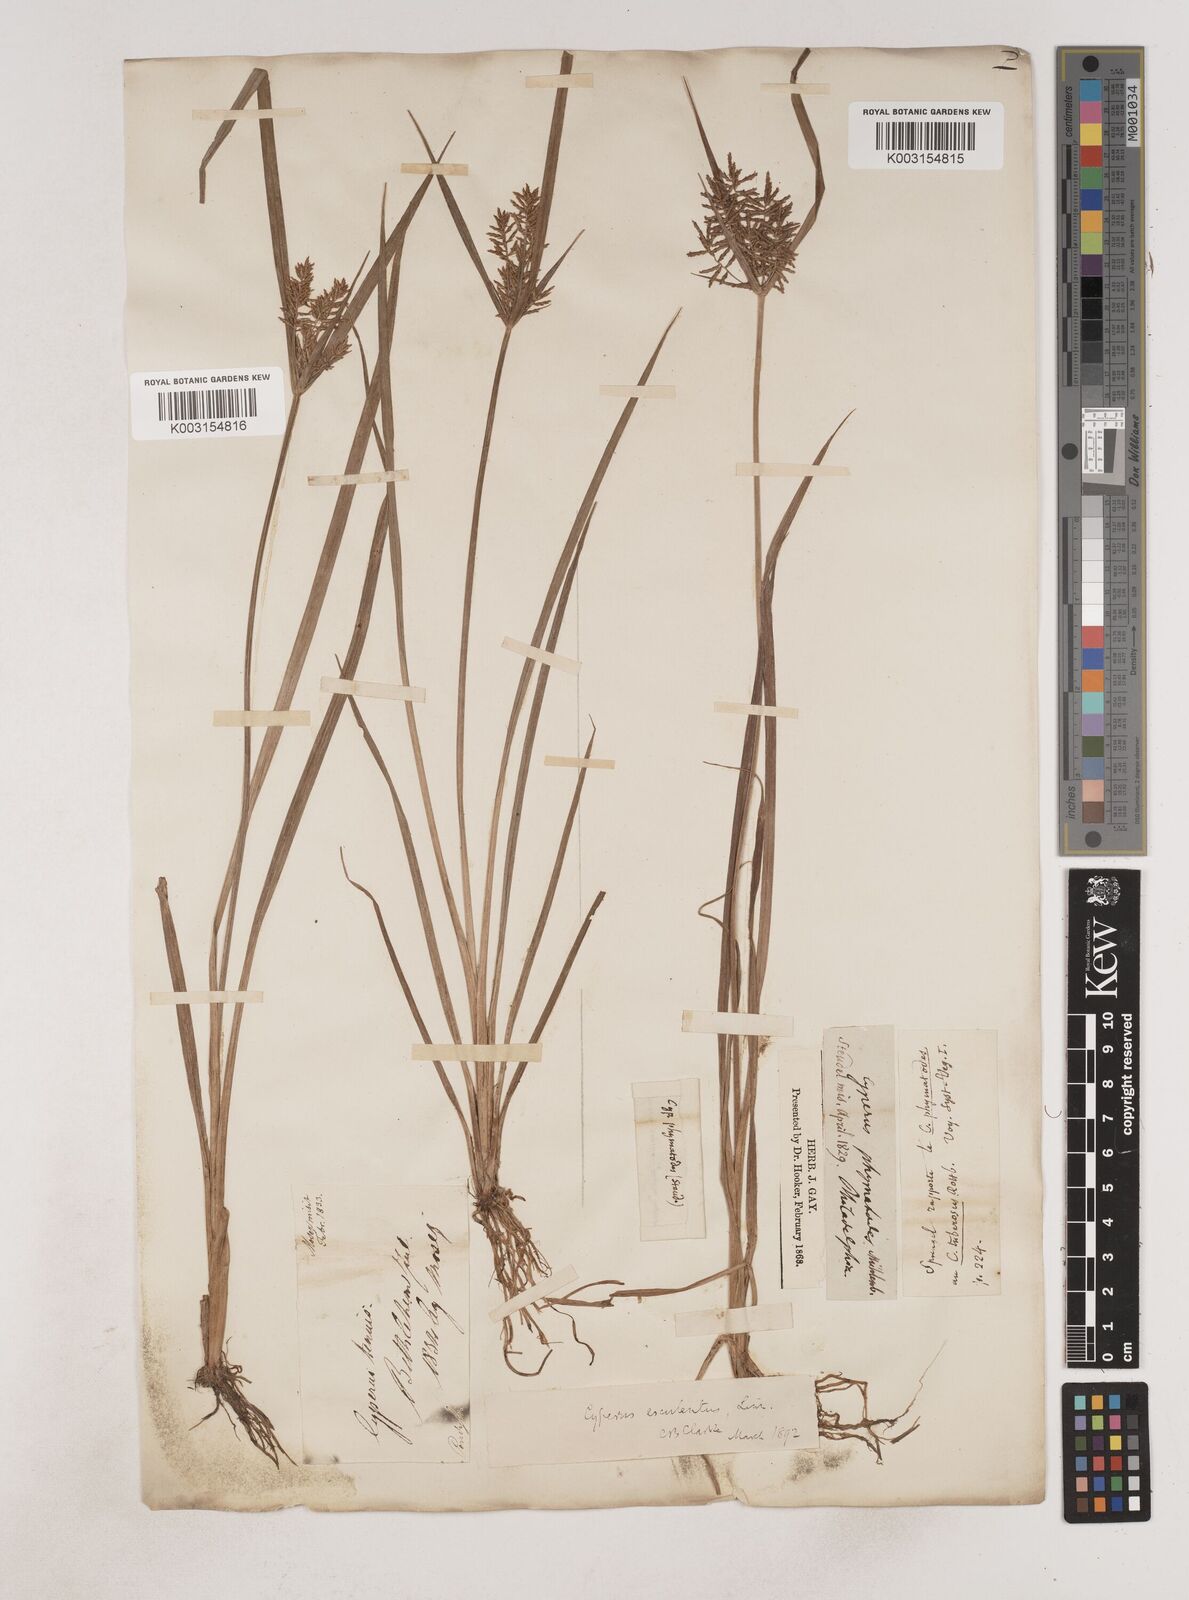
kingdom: Plantae
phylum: Tracheophyta
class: Liliopsida
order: Poales
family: Cyperaceae
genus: Cyperus
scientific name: Cyperus esculentus
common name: Yellow nutsedge
